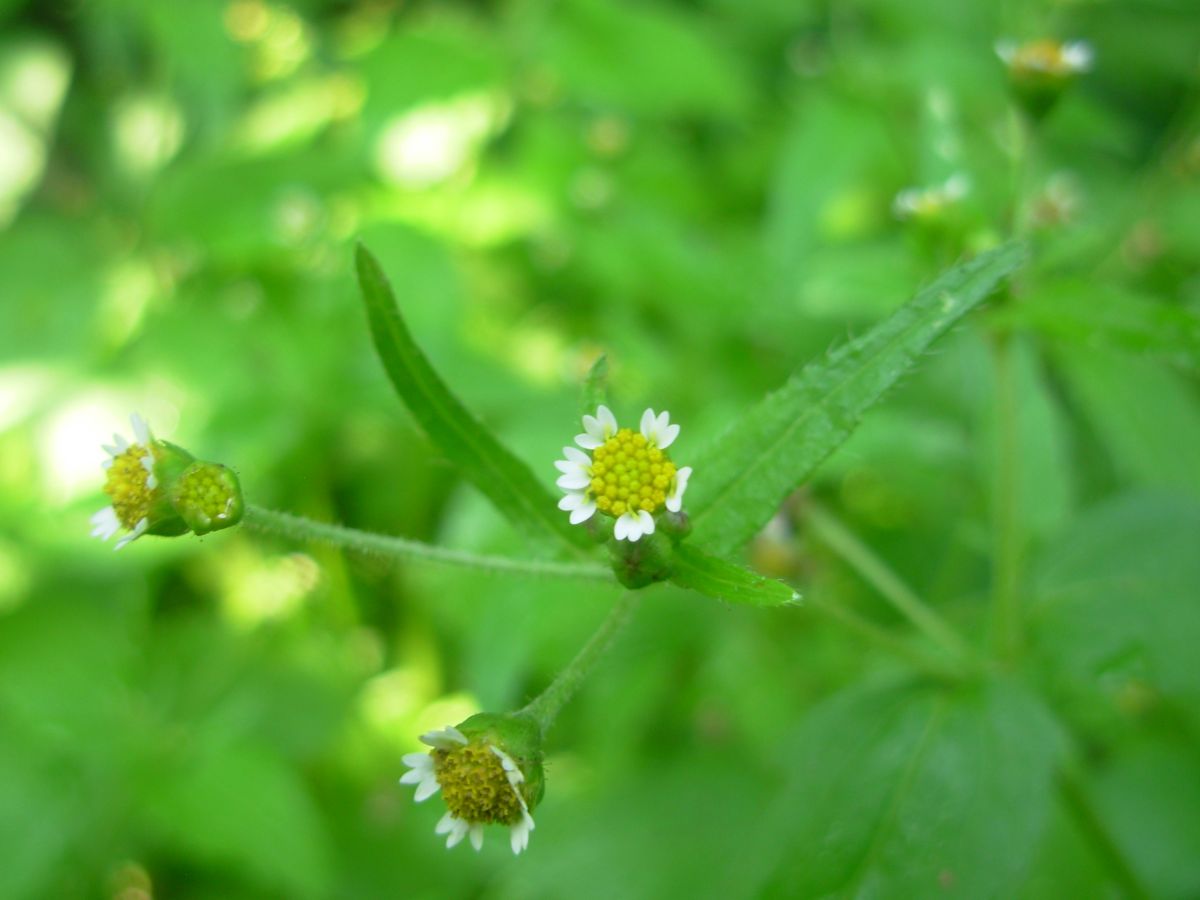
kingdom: Plantae
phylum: Tracheophyta
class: Magnoliopsida
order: Asterales
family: Asteraceae
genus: Galinsoga
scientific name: Galinsoga quadriradiata
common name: Shaggy soldier
